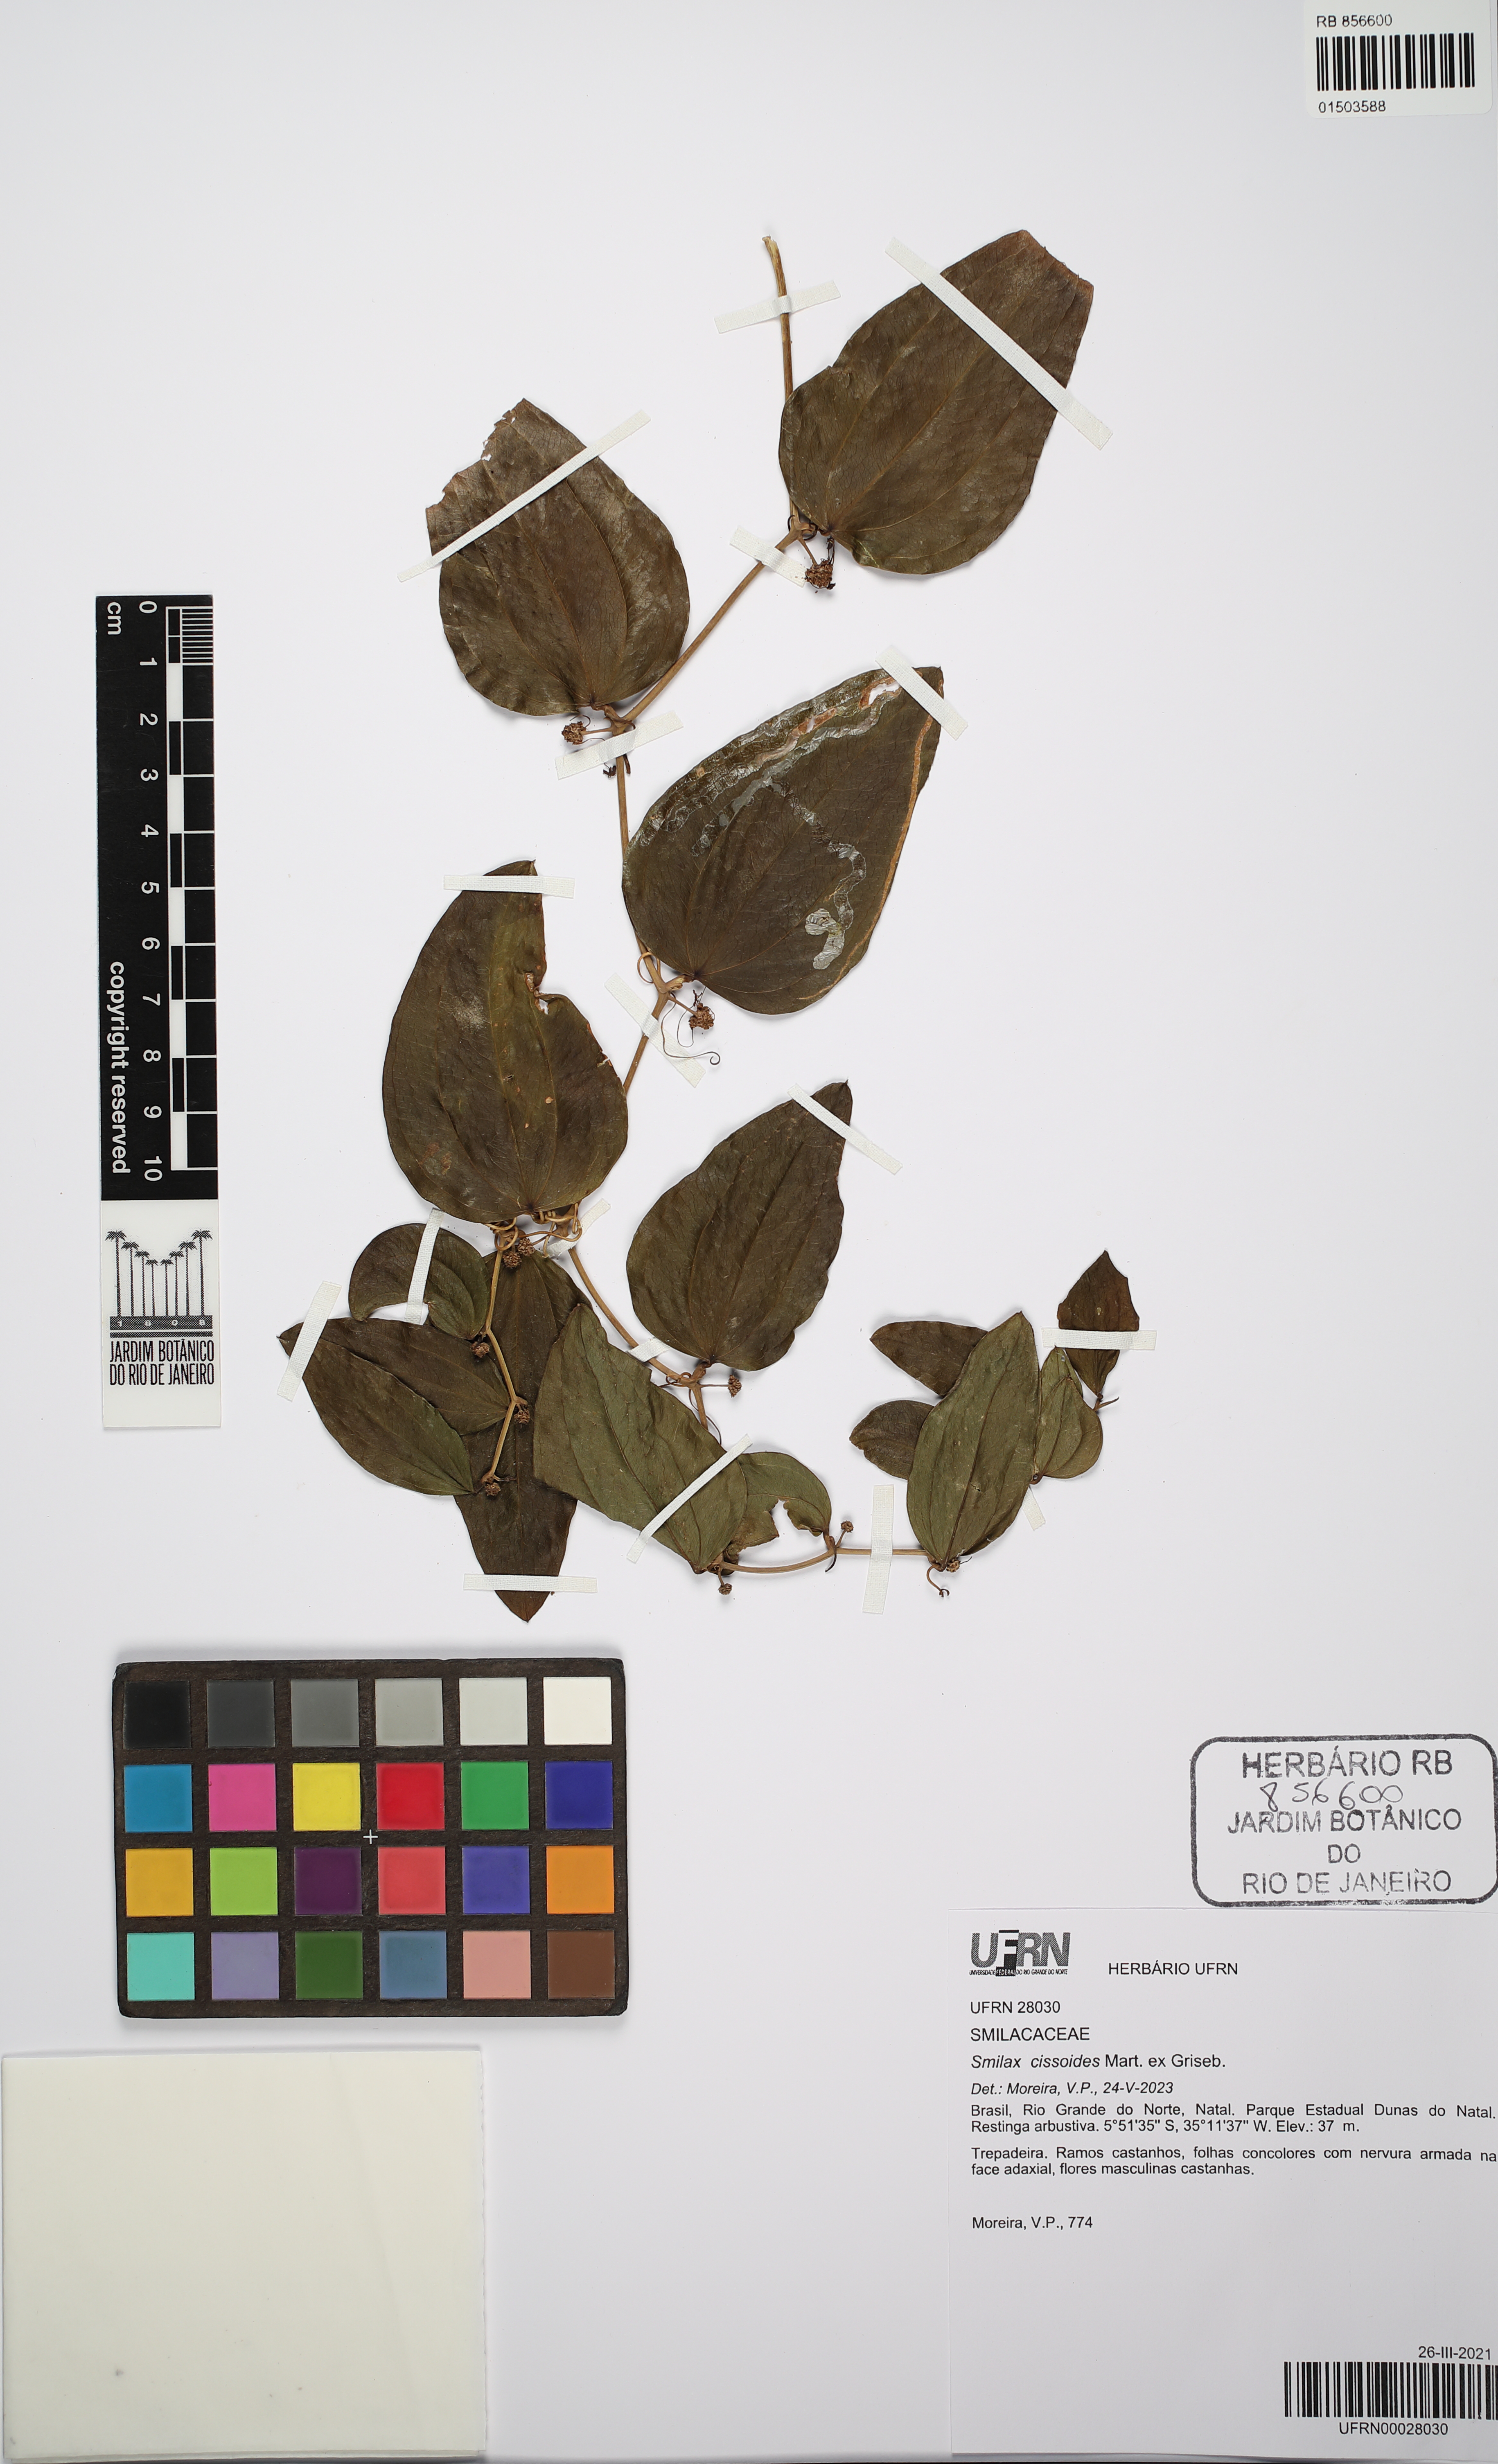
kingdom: Plantae
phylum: Tracheophyta
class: Liliopsida
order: Liliales
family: Smilacaceae
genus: Smilax
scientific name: Smilax cissoides
